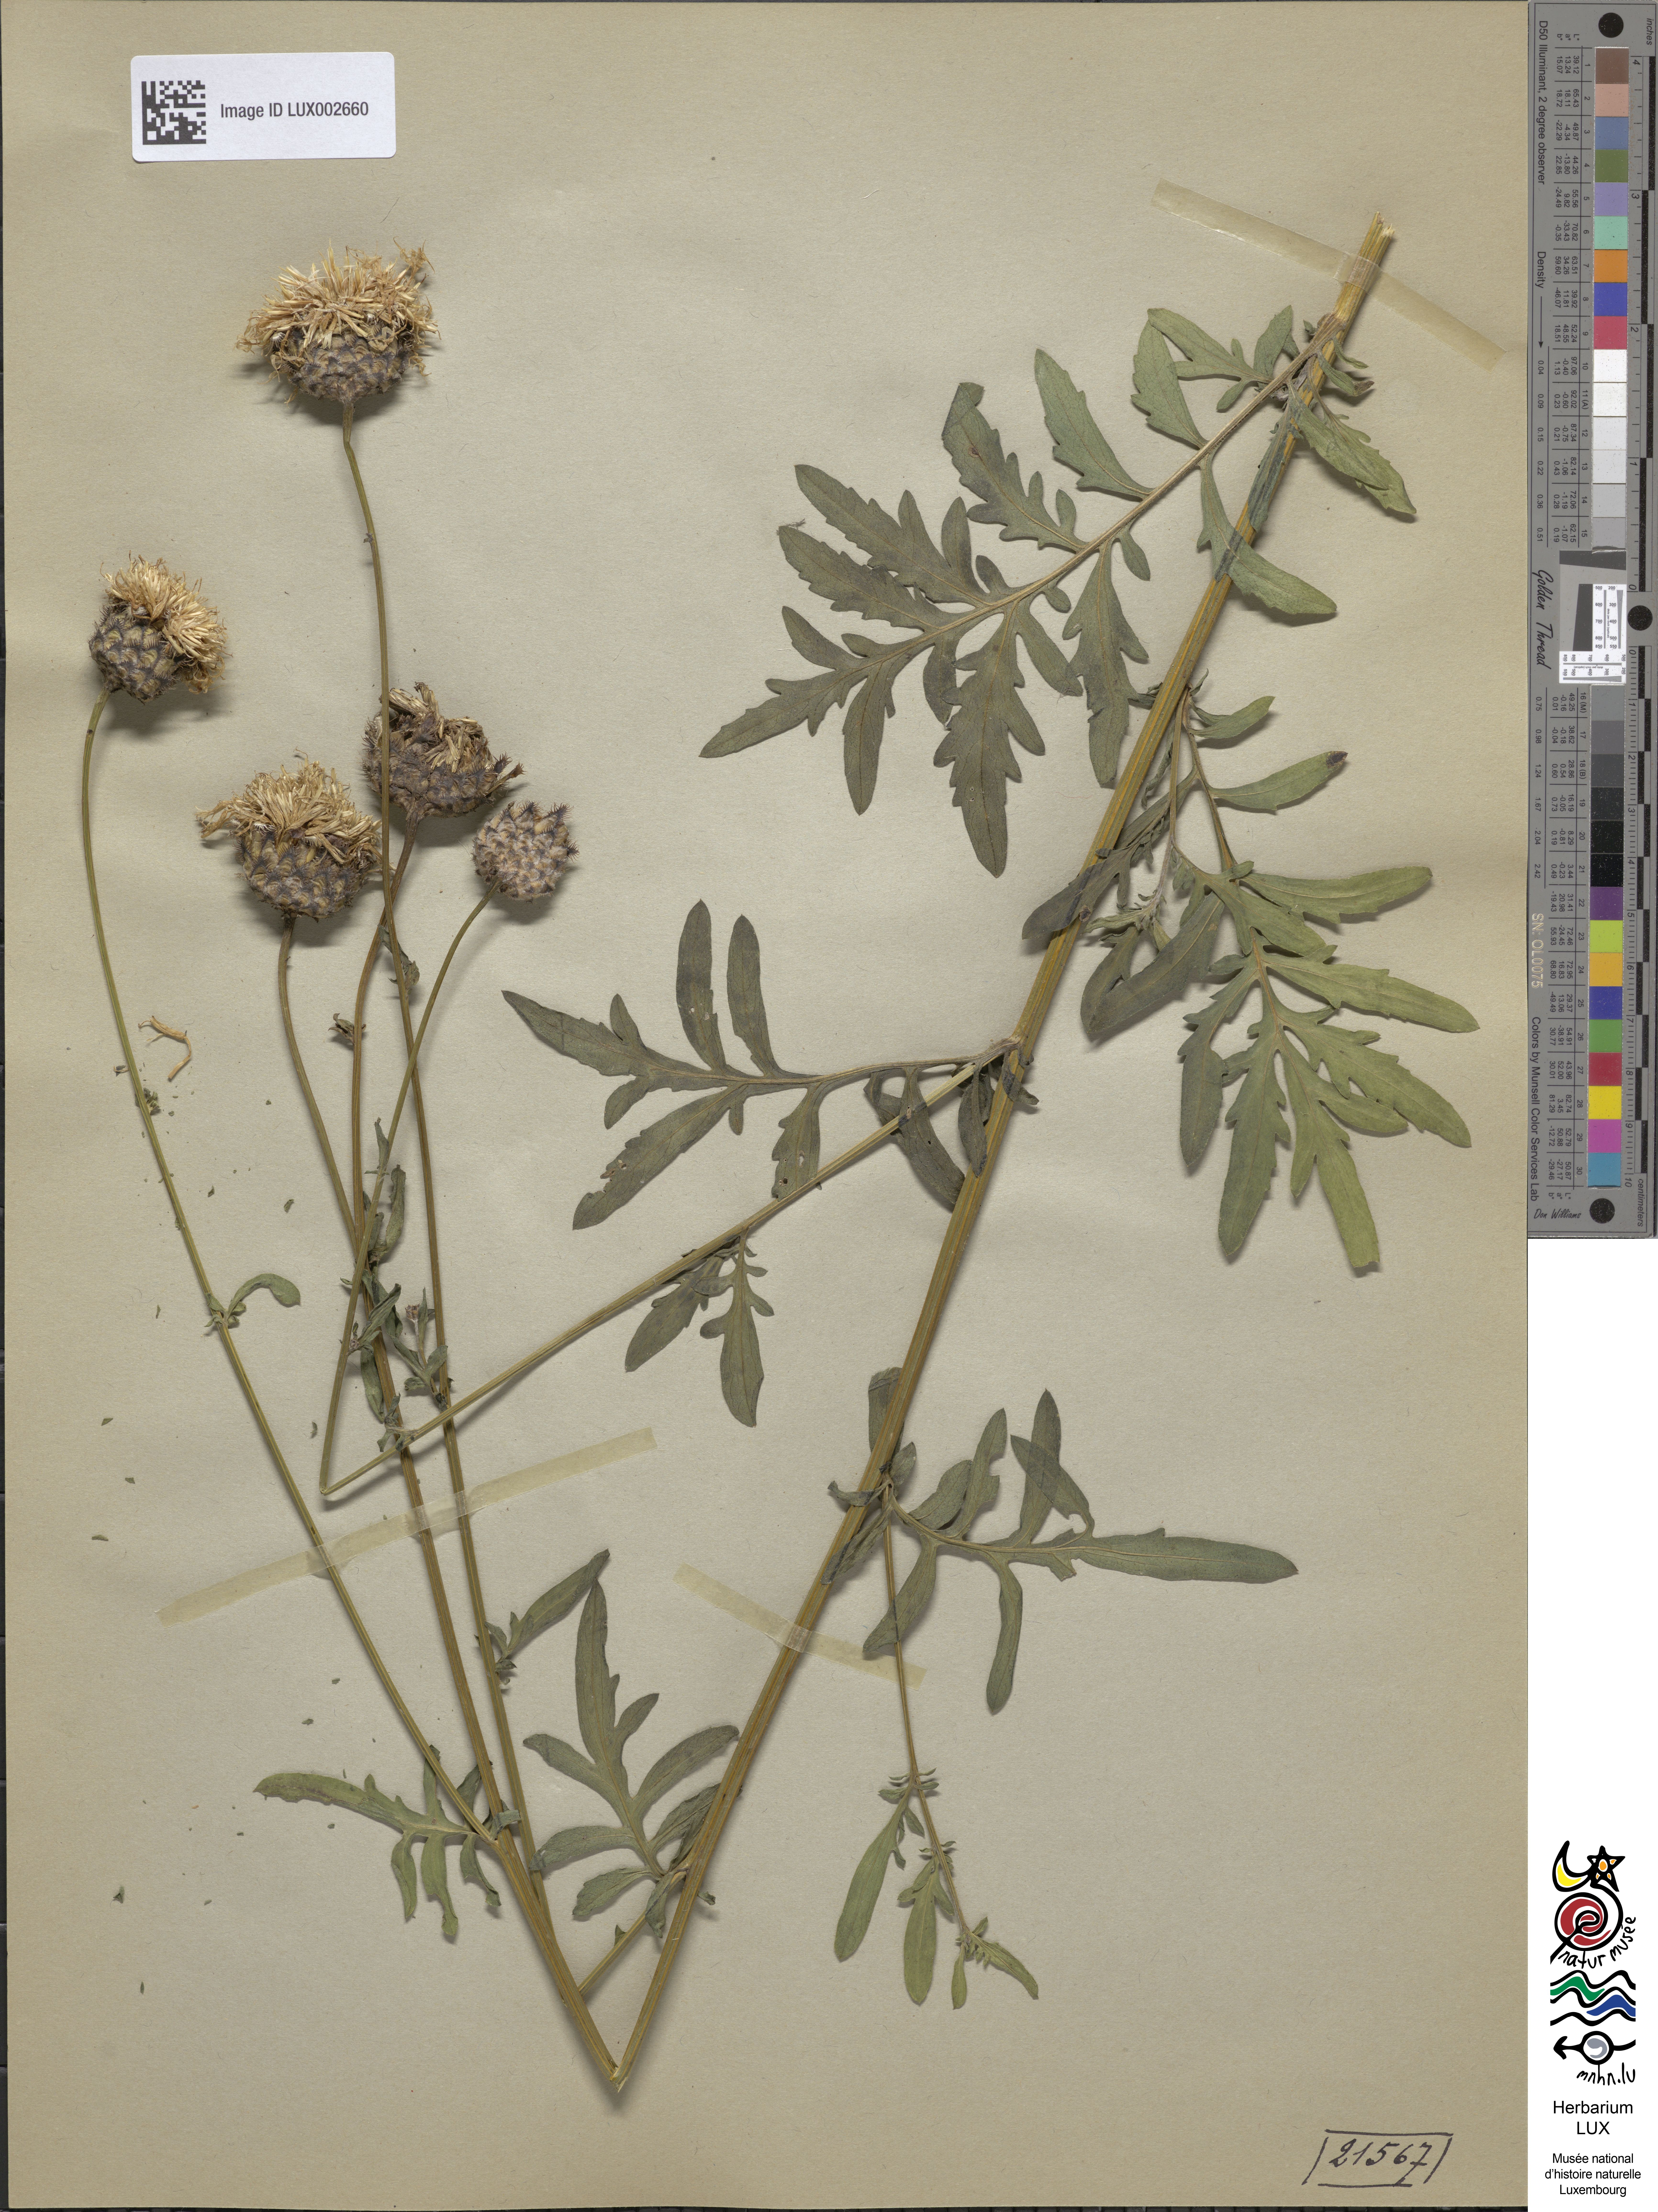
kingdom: Plantae
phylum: Tracheophyta
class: Magnoliopsida
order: Asterales
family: Asteraceae
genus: Centaurea
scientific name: Centaurea scabiosa
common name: Greater knapweed
